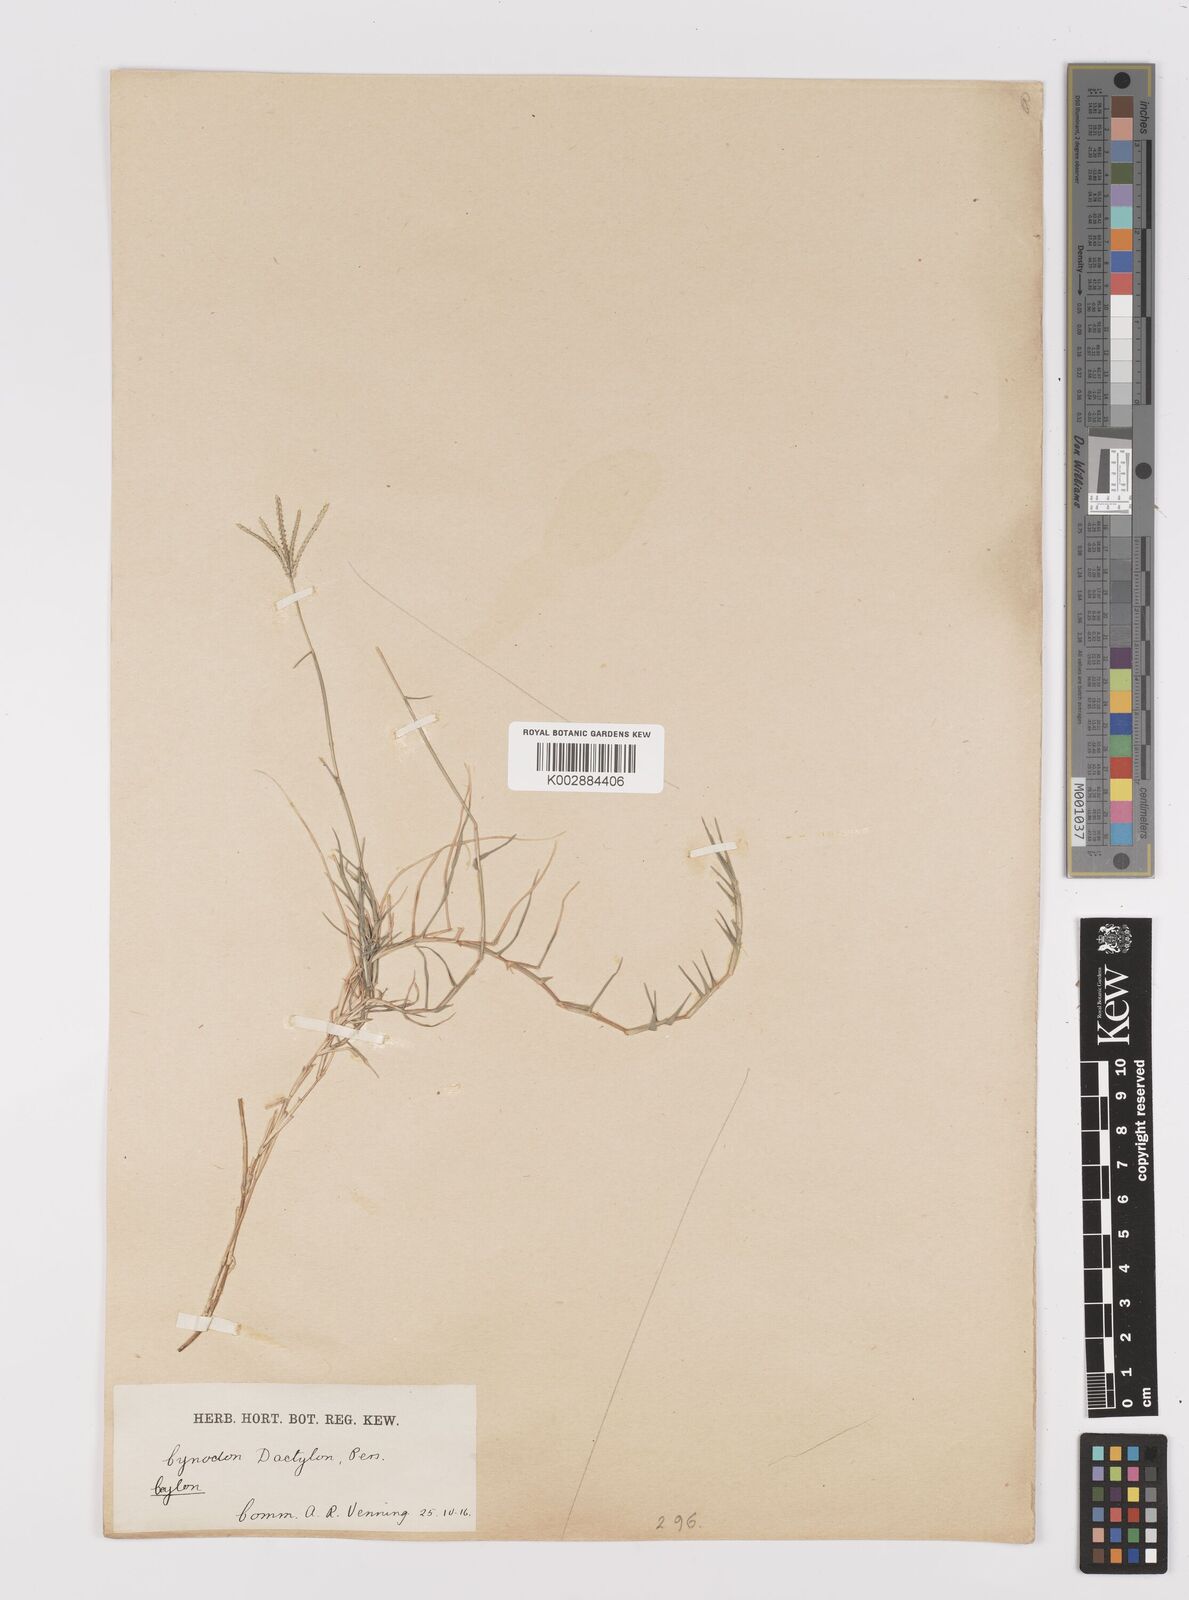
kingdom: Plantae
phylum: Tracheophyta
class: Liliopsida
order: Poales
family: Poaceae
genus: Cynodon
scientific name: Cynodon dactylon
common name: Bermuda grass
